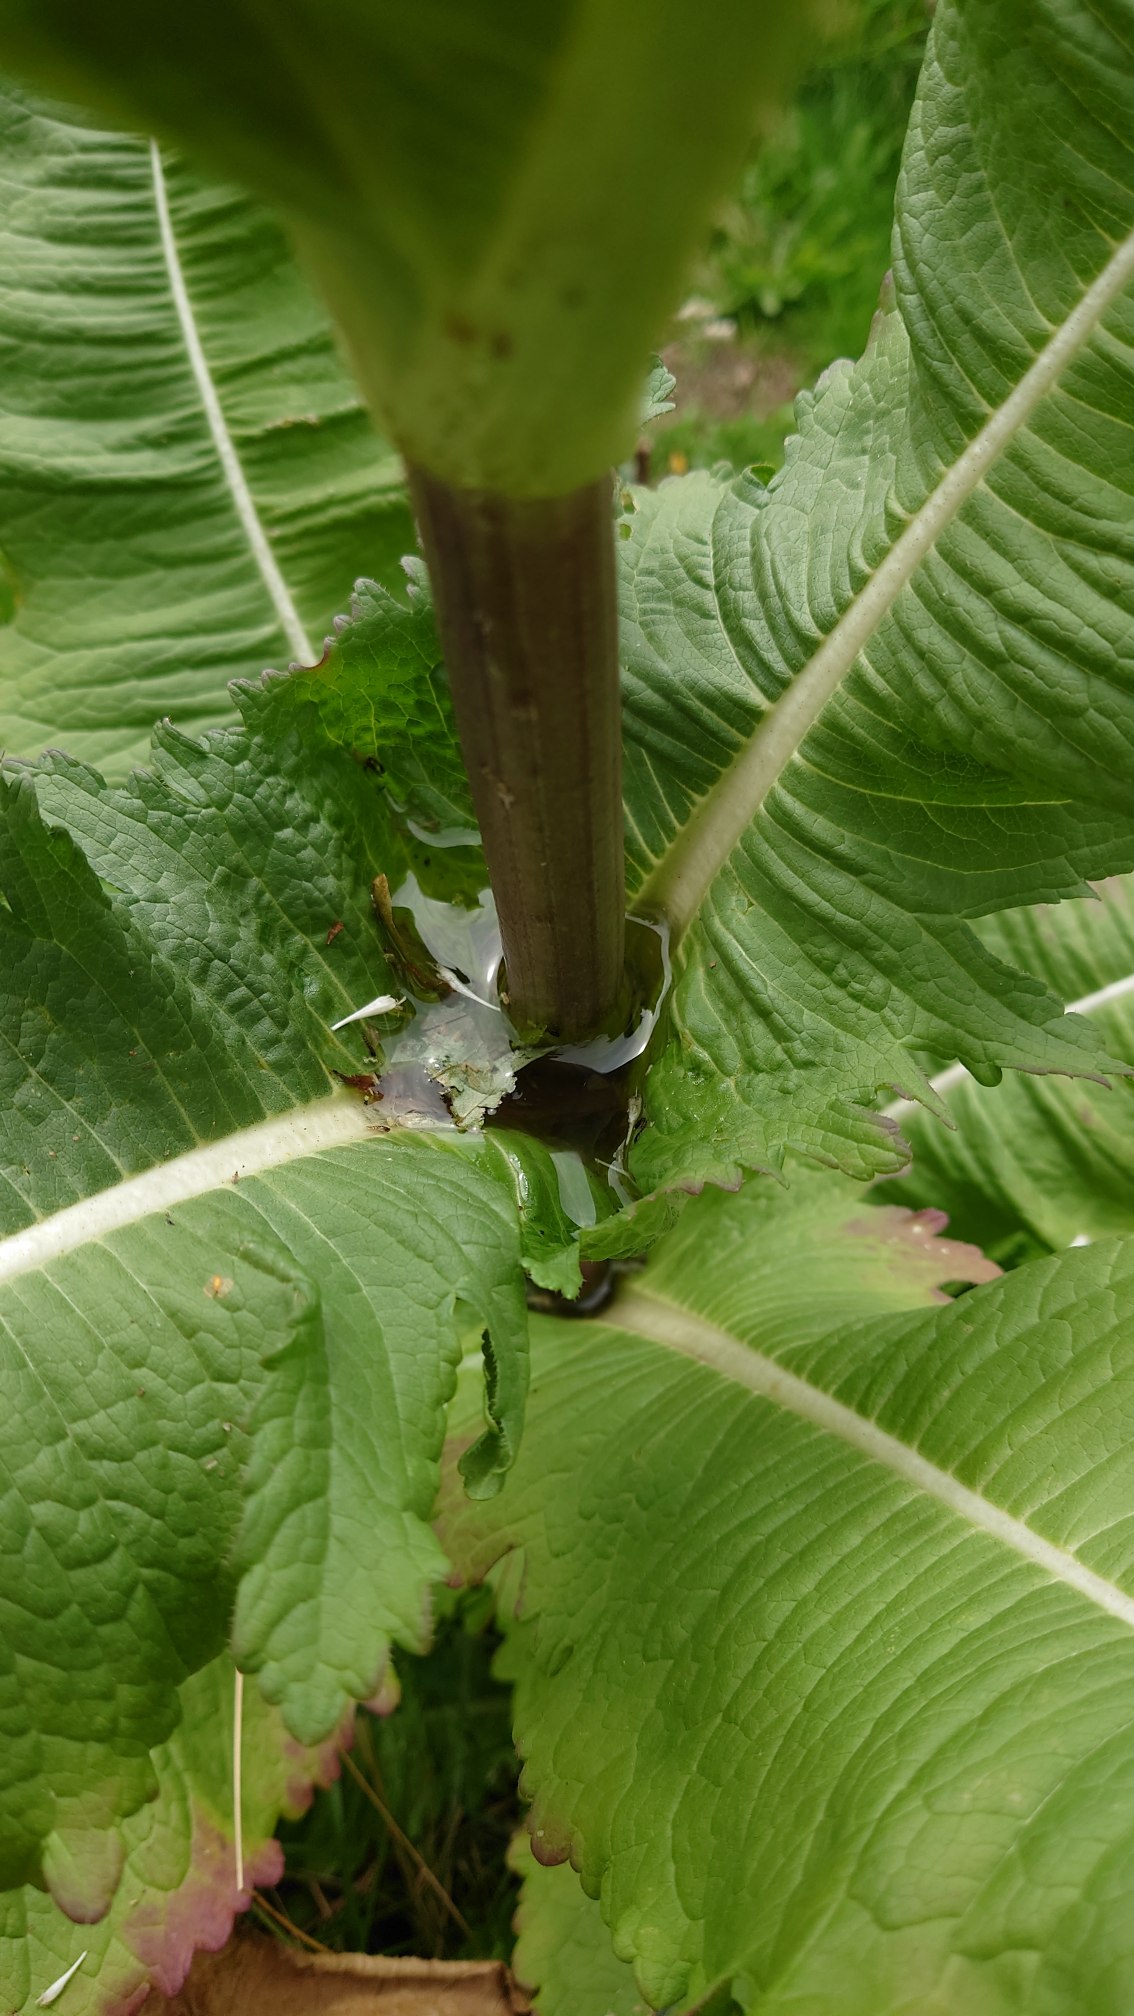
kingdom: Plantae
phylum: Tracheophyta
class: Magnoliopsida
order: Dipsacales
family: Caprifoliaceae
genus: Dipsacus
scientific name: Dipsacus laciniatus
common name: Fliget kartebolle
